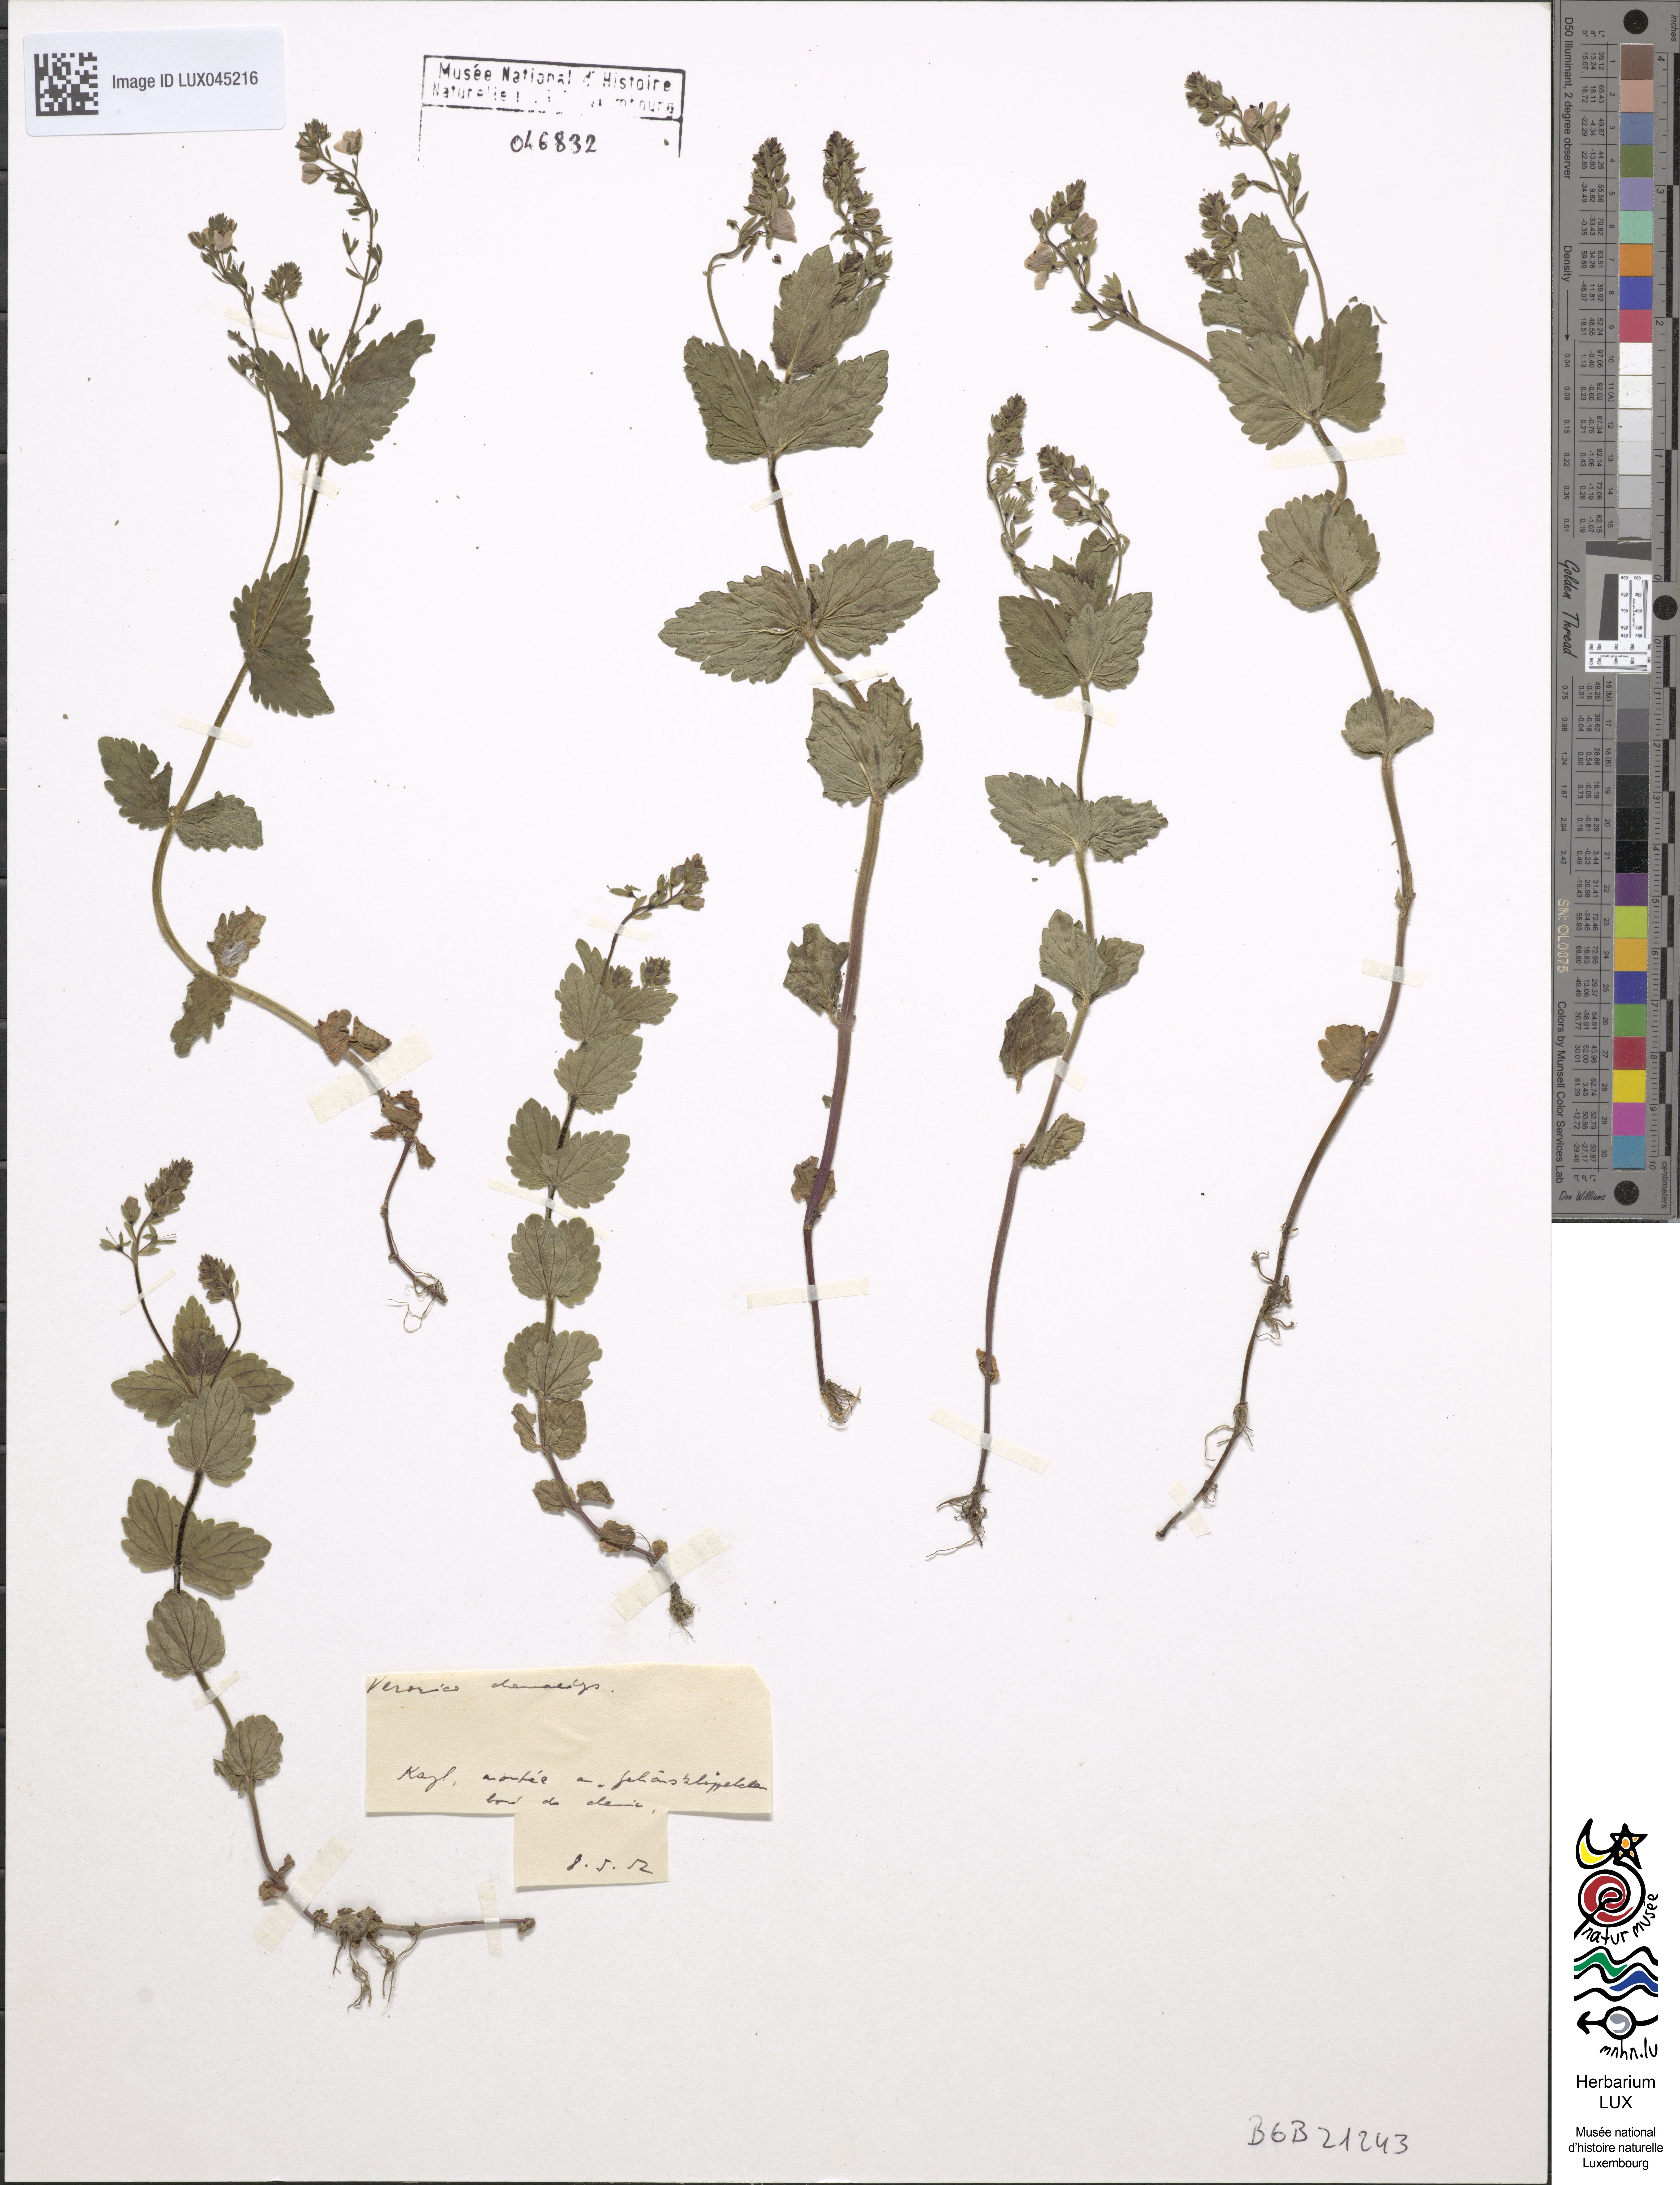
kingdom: Plantae
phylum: Tracheophyta
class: Magnoliopsida
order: Lamiales
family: Plantaginaceae
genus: Veronica
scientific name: Veronica dabneyi
